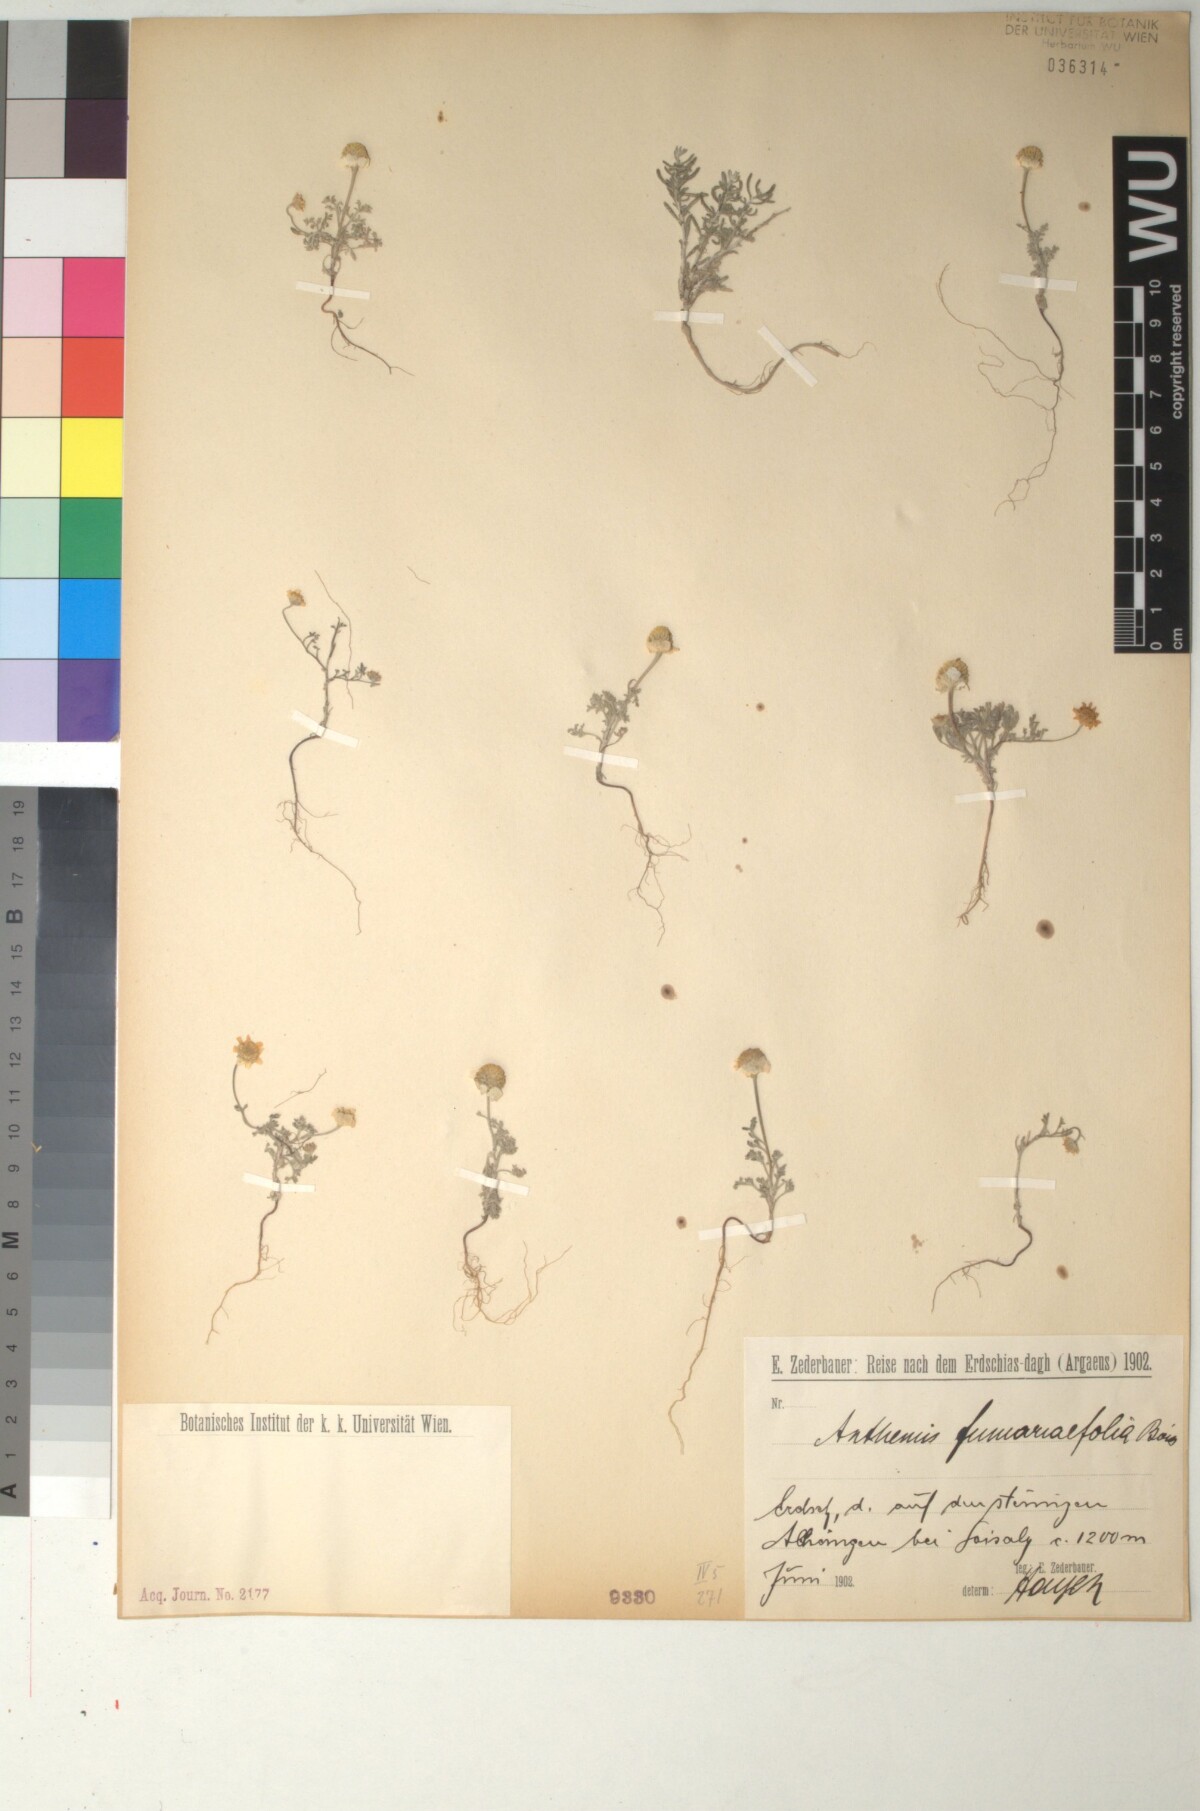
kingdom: Plantae
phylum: Tracheophyta
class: Magnoliopsida
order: Asterales
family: Asteraceae
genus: Anthemis
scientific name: Anthemis fumariifolia
